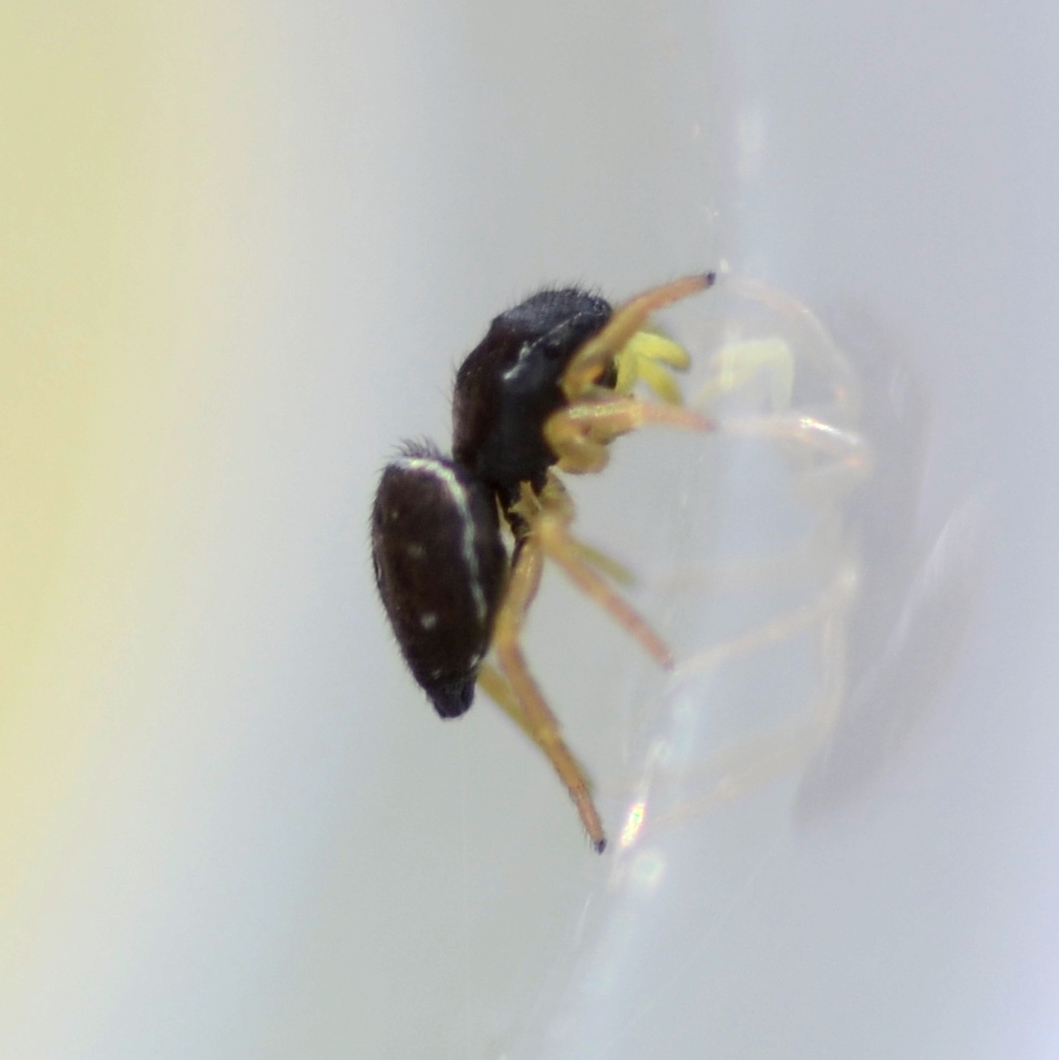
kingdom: Animalia
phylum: Arthropoda
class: Arachnida
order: Araneae
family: Salticidae
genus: Heliophanus
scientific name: Heliophanus
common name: Sortspringerslægten
